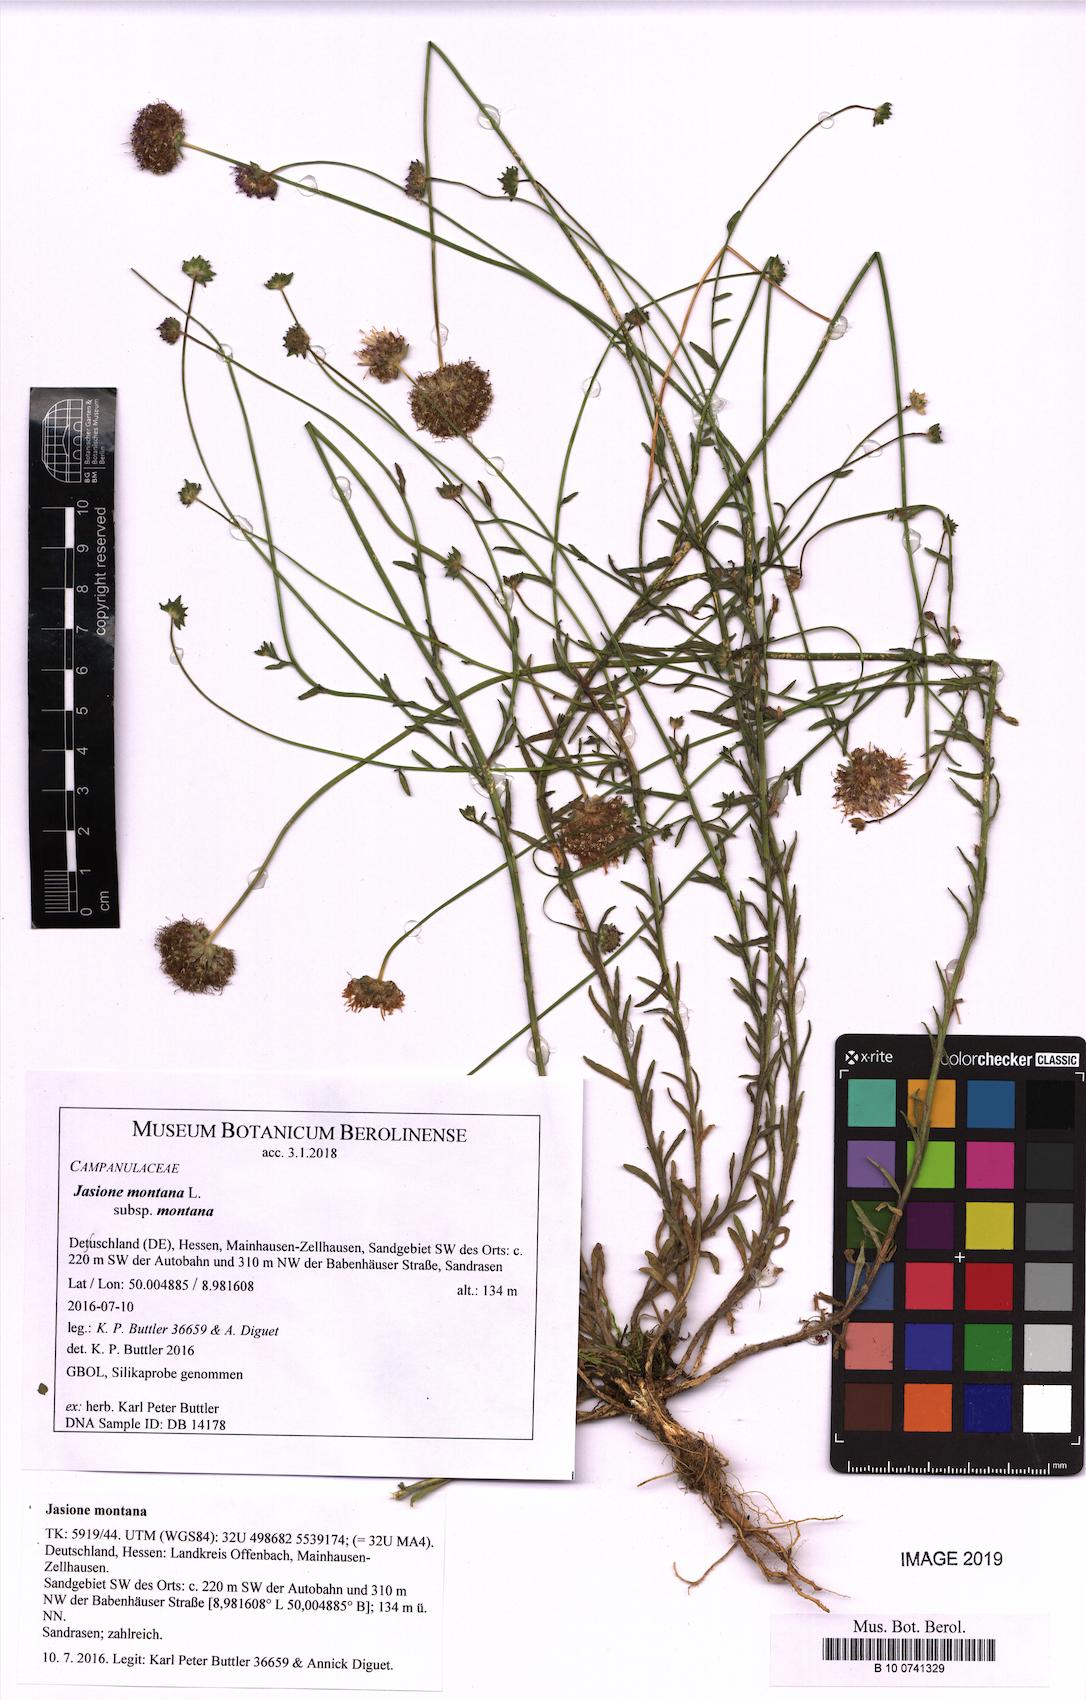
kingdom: Plantae
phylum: Tracheophyta
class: Magnoliopsida
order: Asterales
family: Campanulaceae
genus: Jasione
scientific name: Jasione montana
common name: Sheep's-bit
